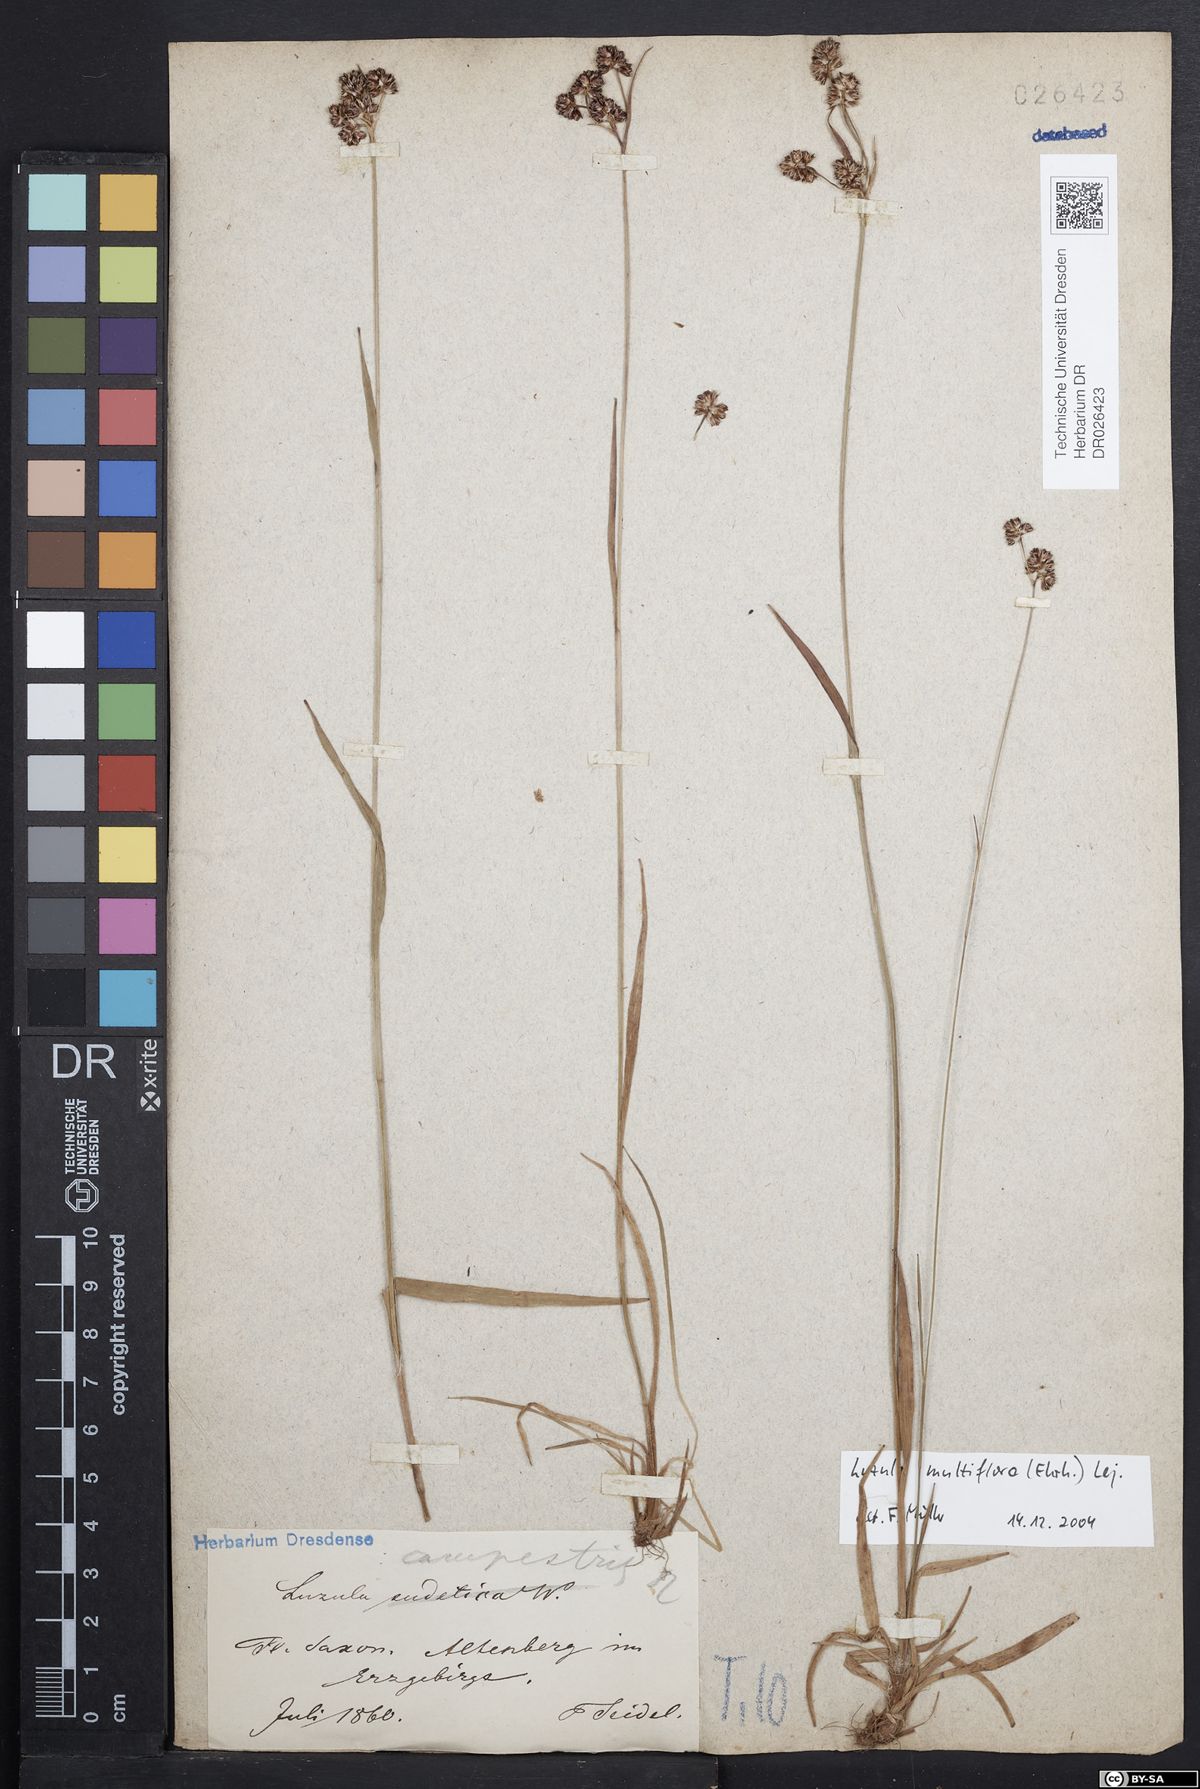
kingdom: Plantae
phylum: Tracheophyta
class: Liliopsida
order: Poales
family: Juncaceae
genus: Luzula
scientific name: Luzula multiflora
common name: Heath wood-rush
